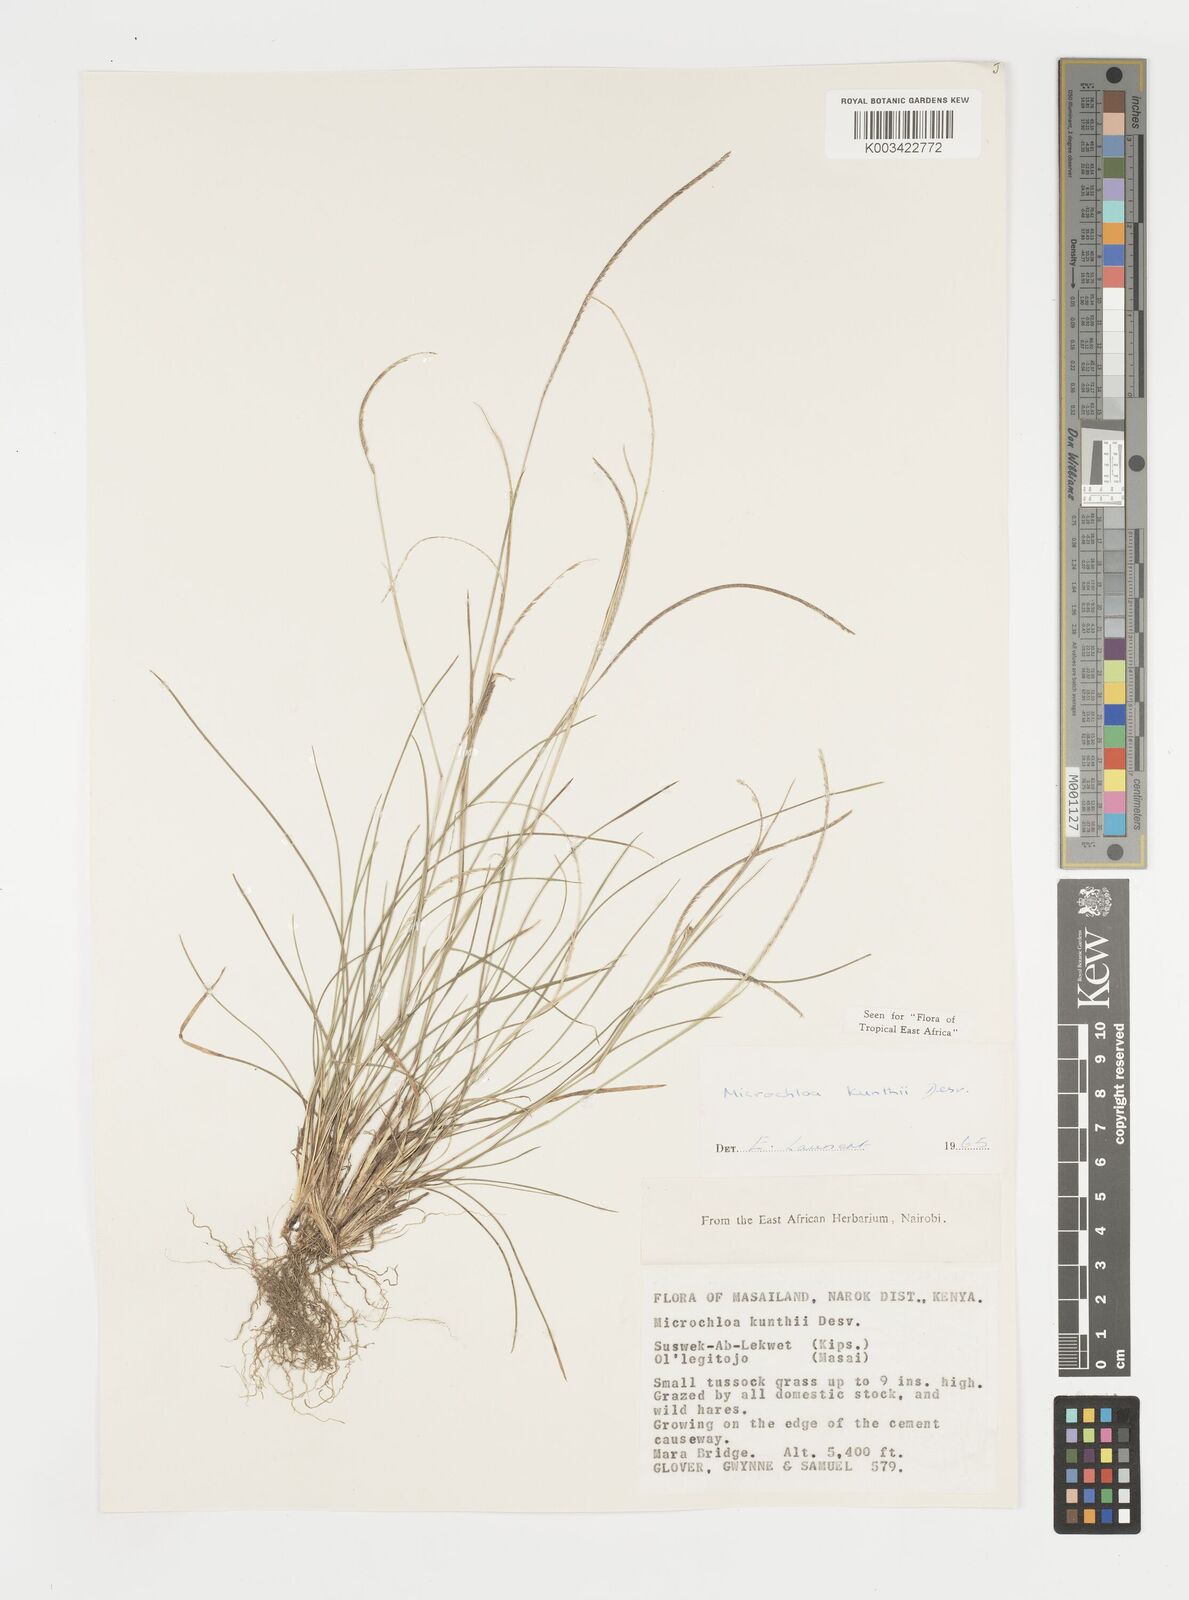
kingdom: Plantae
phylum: Tracheophyta
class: Liliopsida
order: Poales
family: Poaceae
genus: Microchloa
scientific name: Microchloa kunthii
